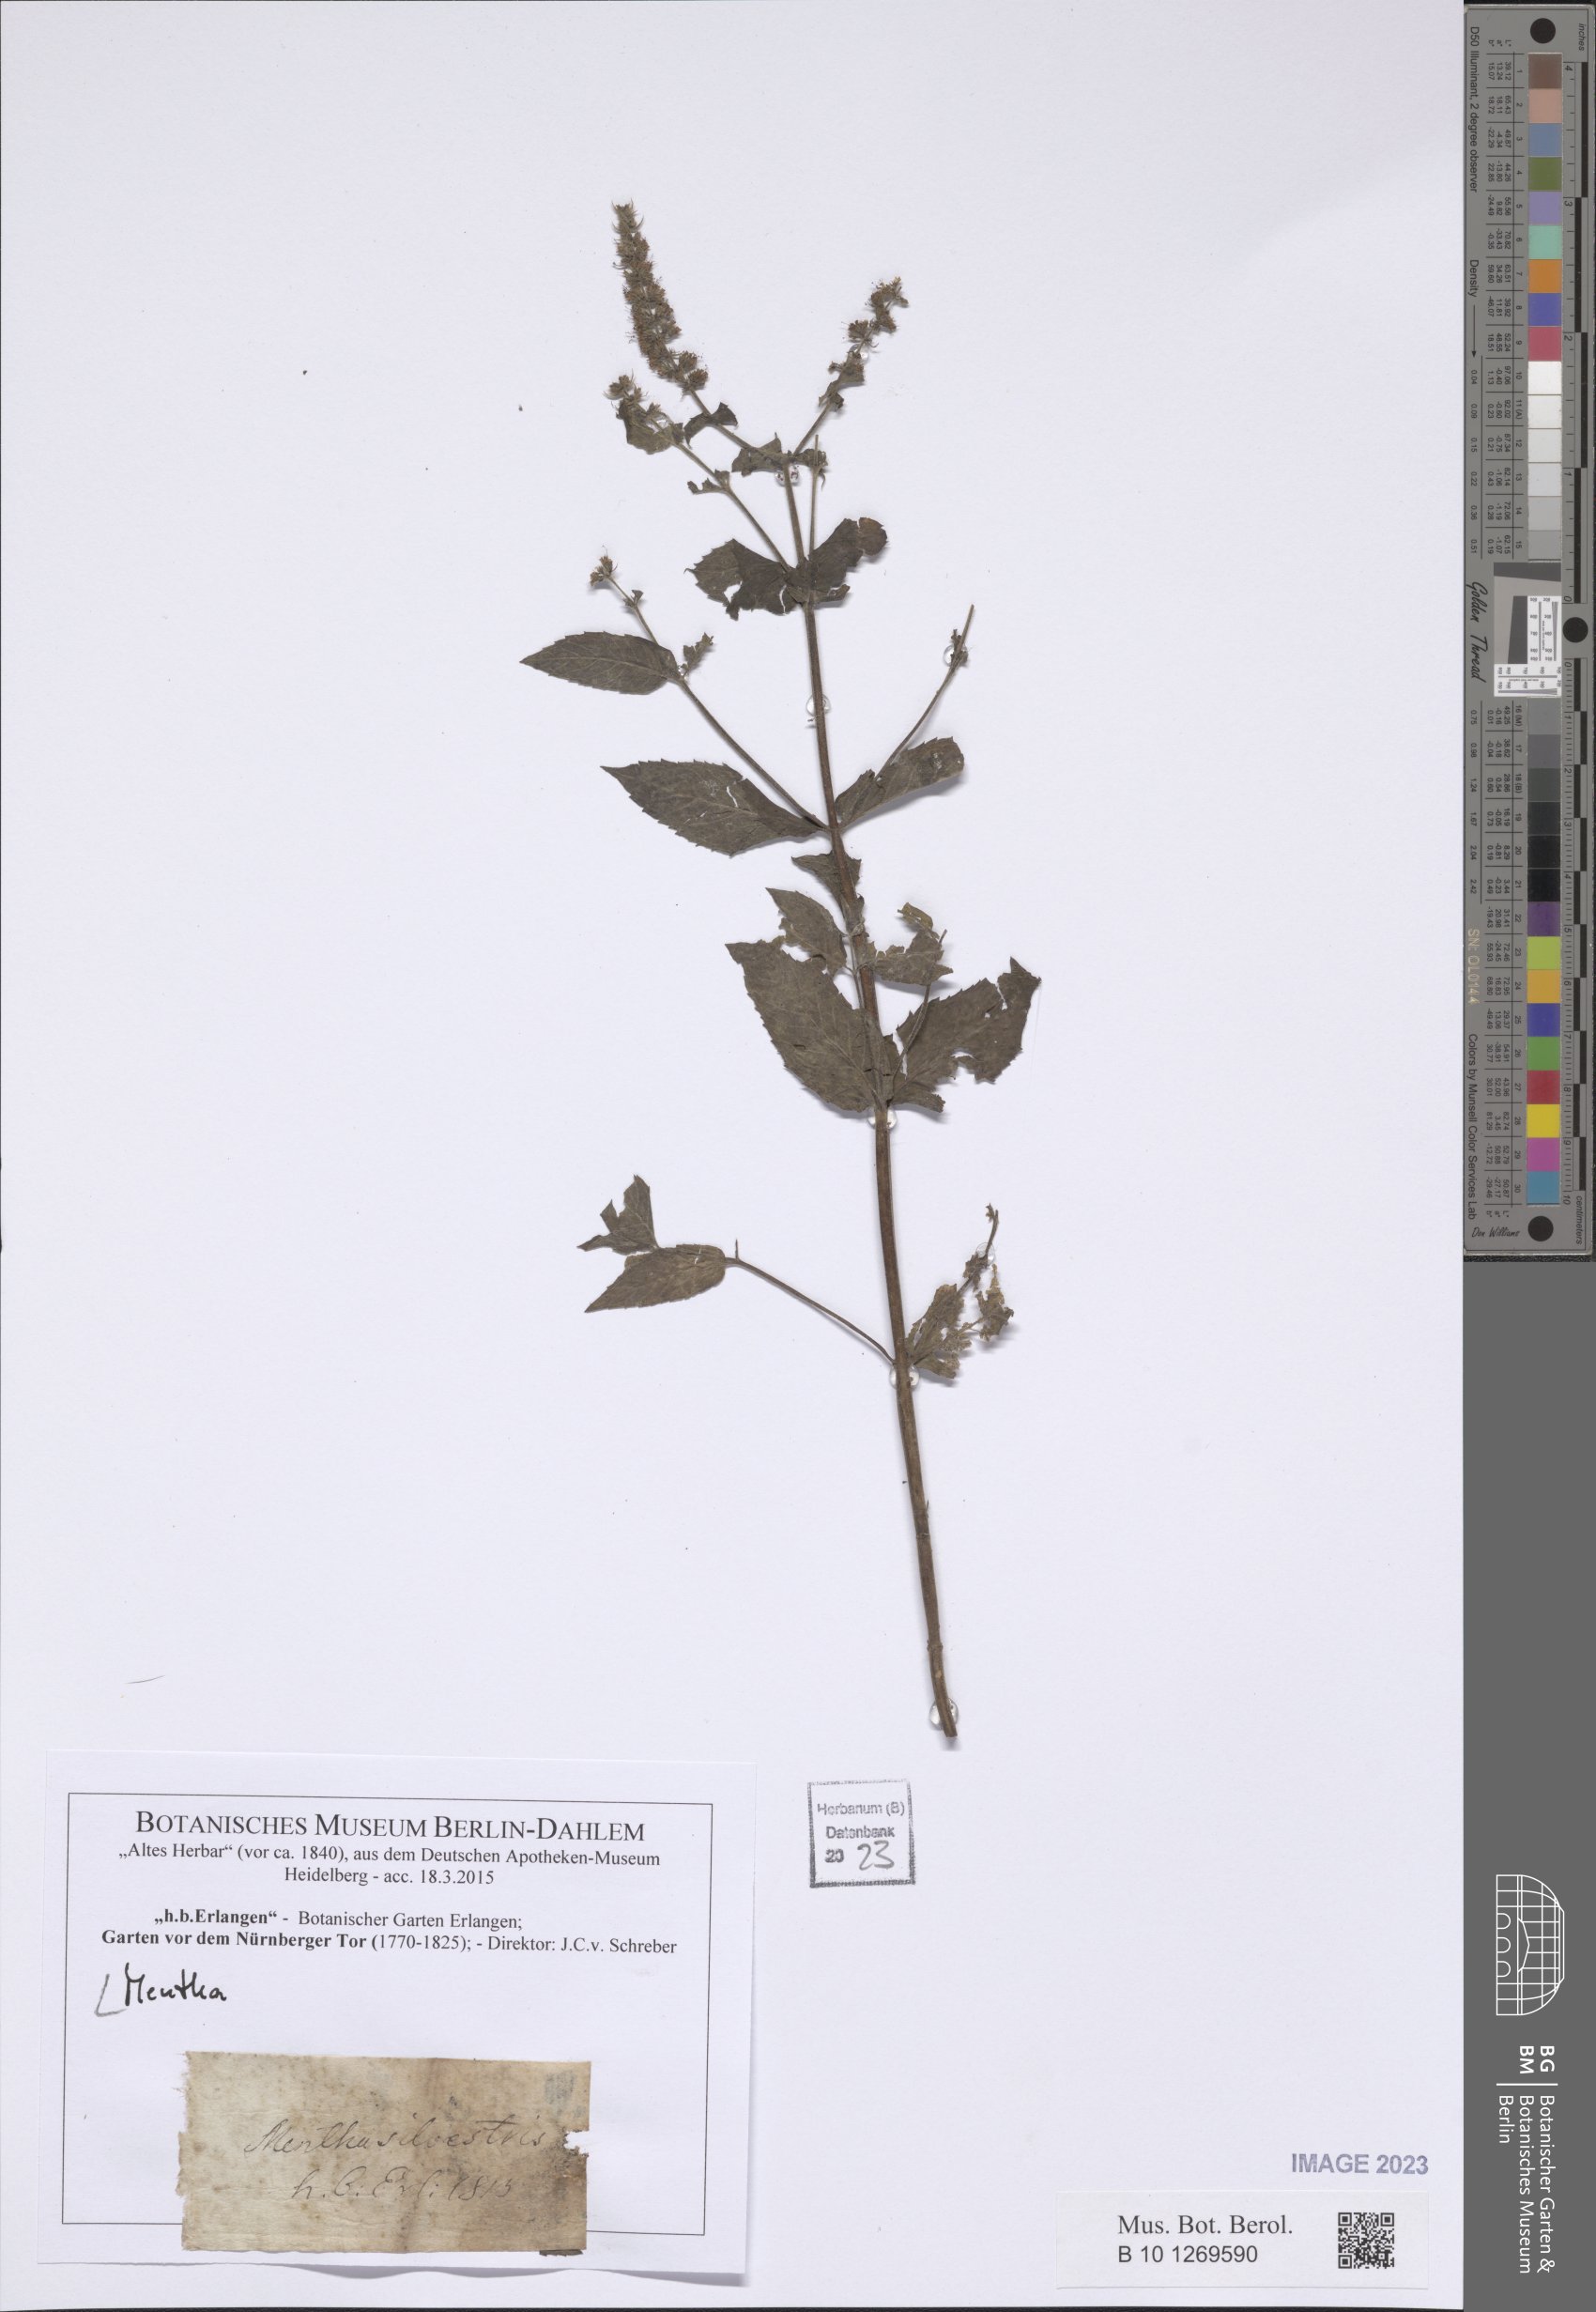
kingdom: Plantae
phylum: Tracheophyta
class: Magnoliopsida
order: Lamiales
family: Lamiaceae
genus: Mentha
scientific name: Mentha
